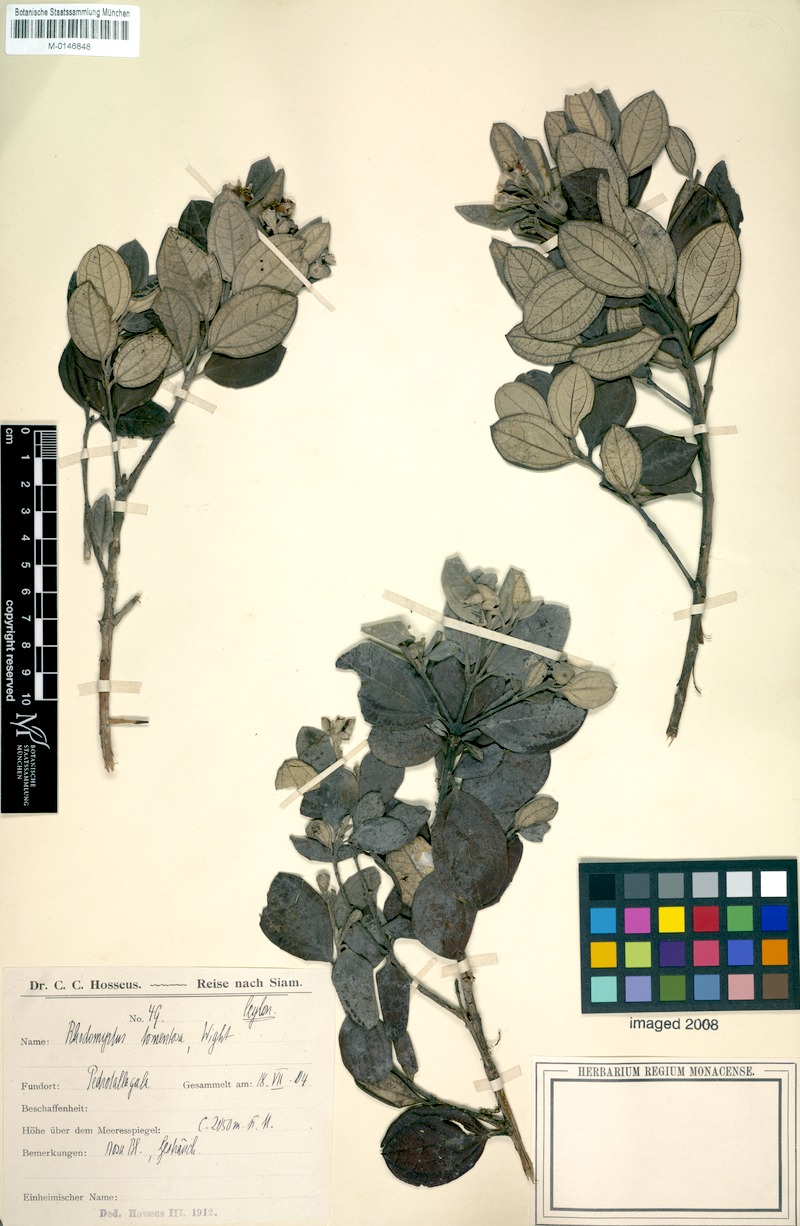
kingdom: Plantae
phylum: Tracheophyta
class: Magnoliopsida
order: Myrtales
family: Myrtaceae
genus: Rhodomyrtus
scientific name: Rhodomyrtus tomentosa
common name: Rose myrtle
